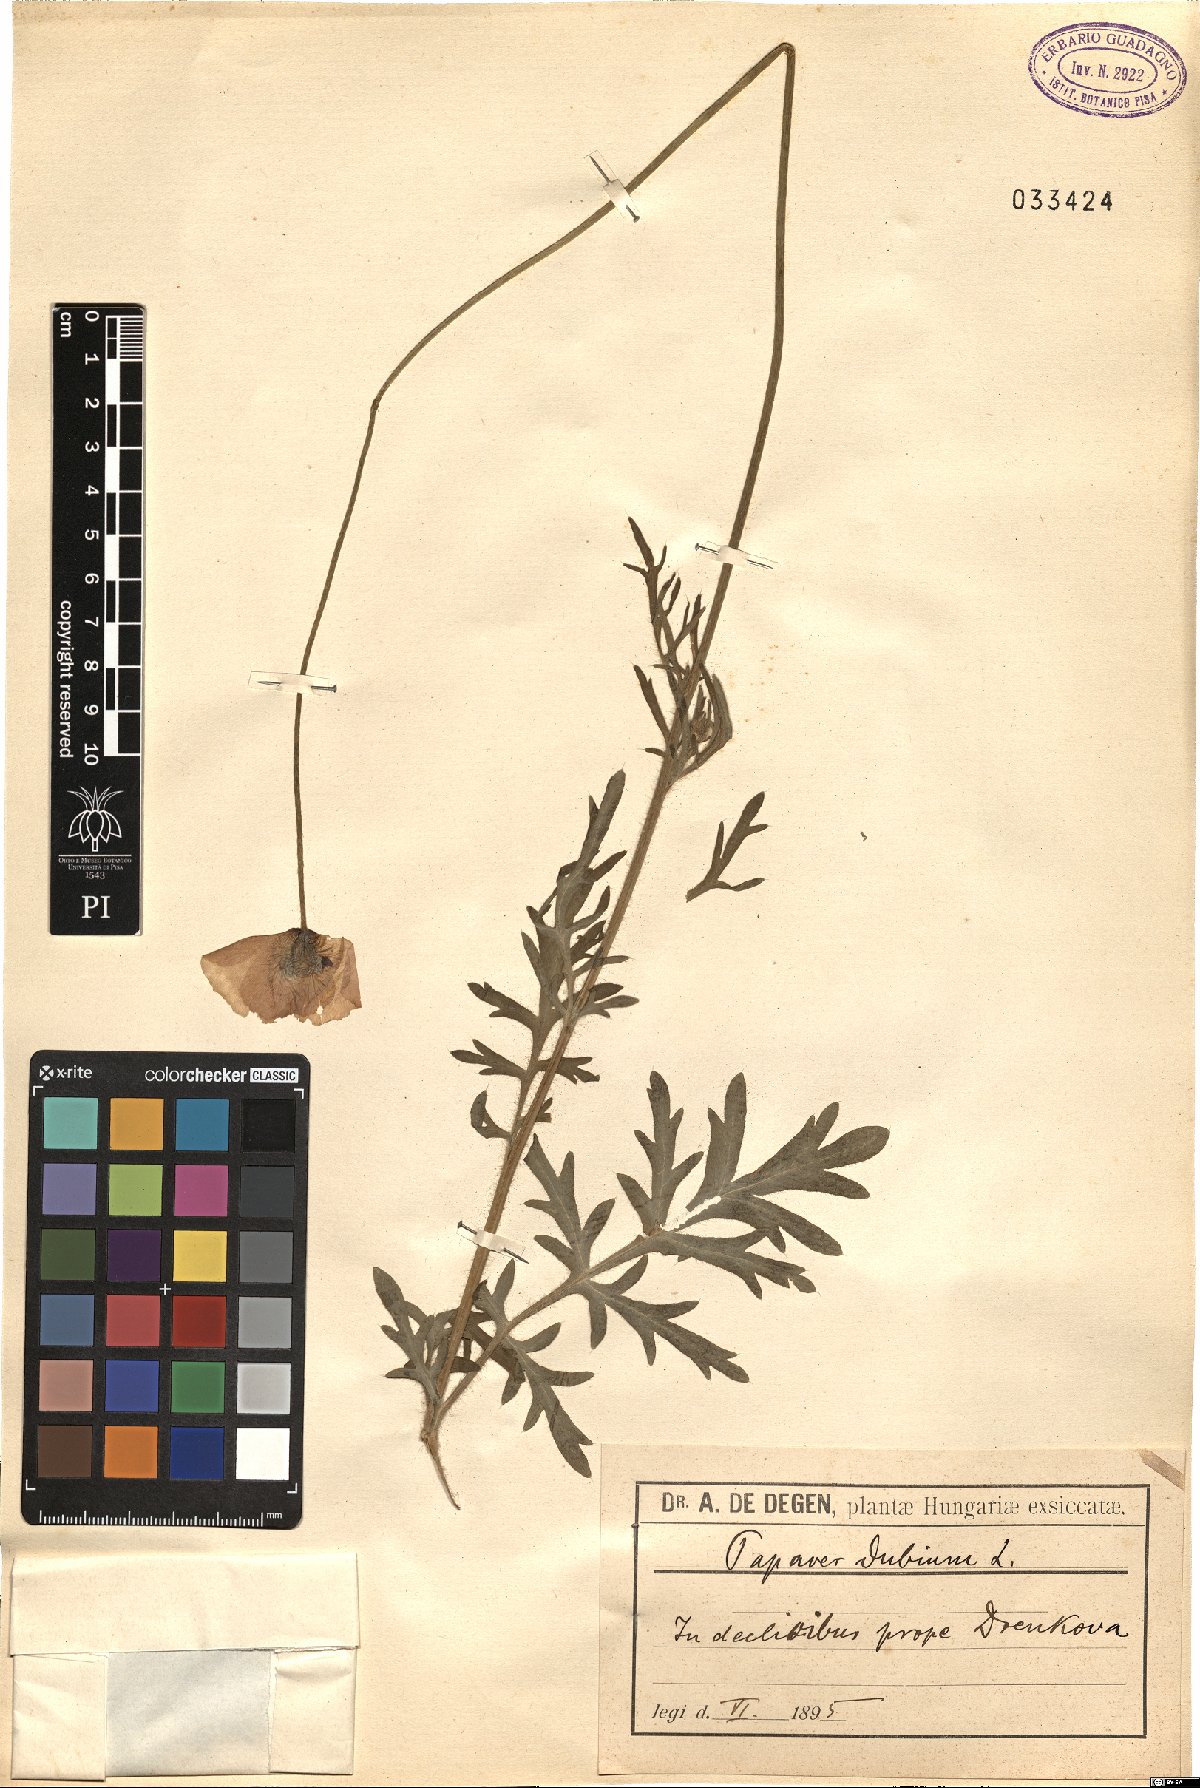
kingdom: Plantae
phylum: Tracheophyta
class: Magnoliopsida
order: Ranunculales
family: Papaveraceae
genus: Papaver
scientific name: Papaver dubium
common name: Long-headed poppy
